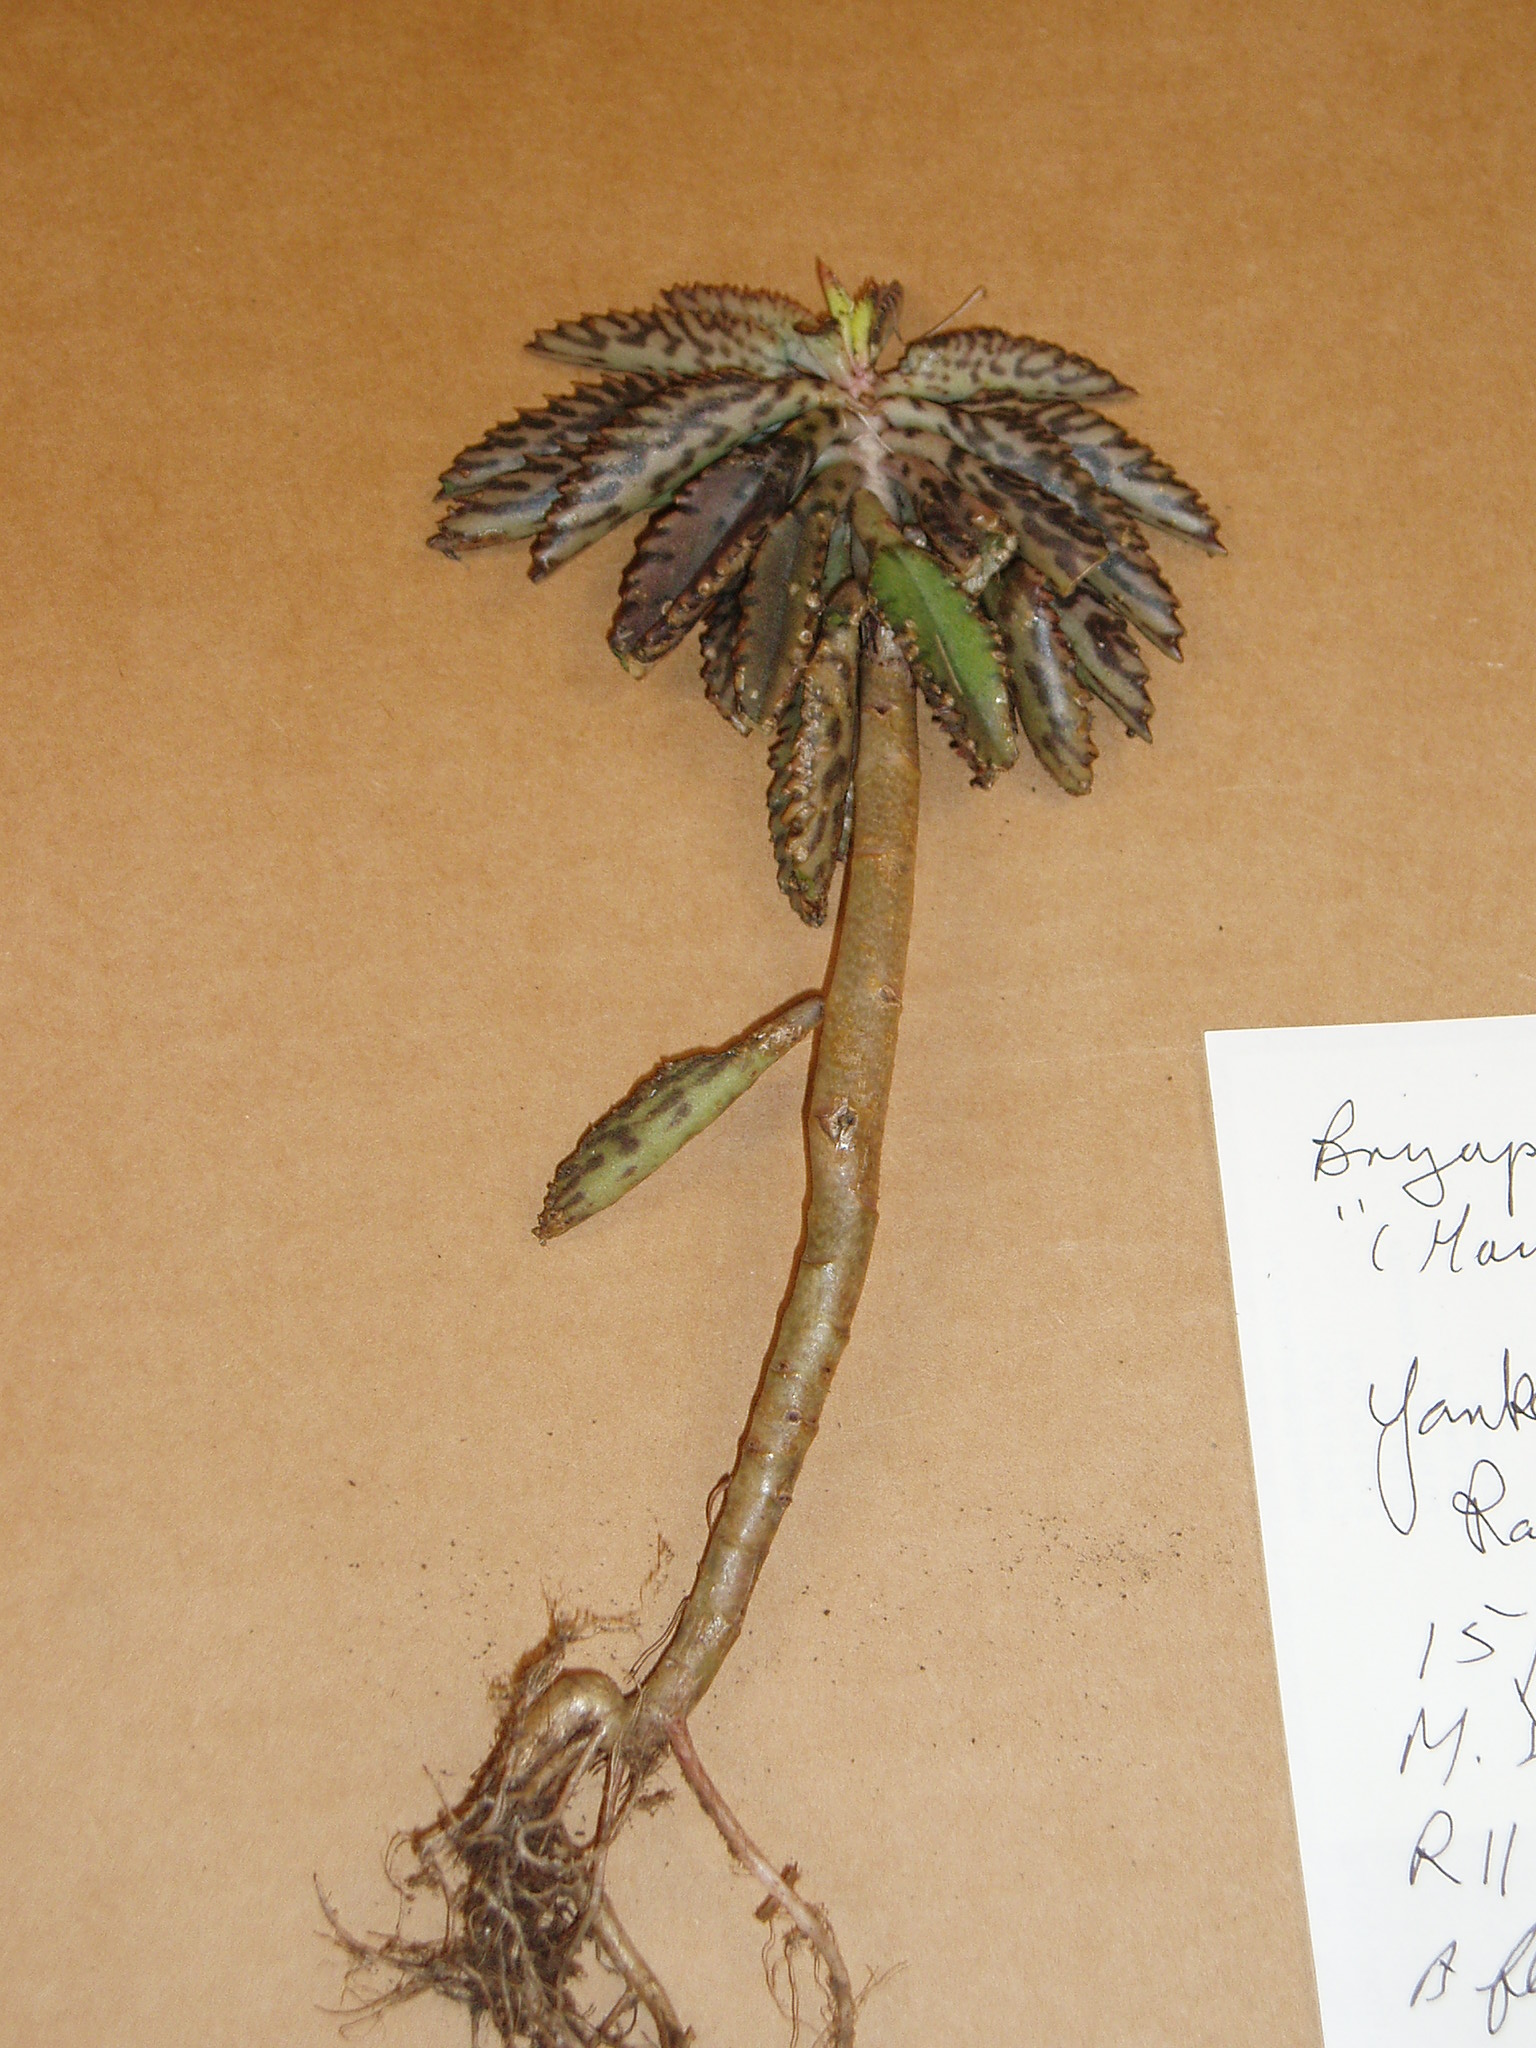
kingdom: Plantae
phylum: Tracheophyta
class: Magnoliopsida
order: Saxifragales
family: Crassulaceae
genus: Kalanchoe
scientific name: Kalanchoe houghtonii
